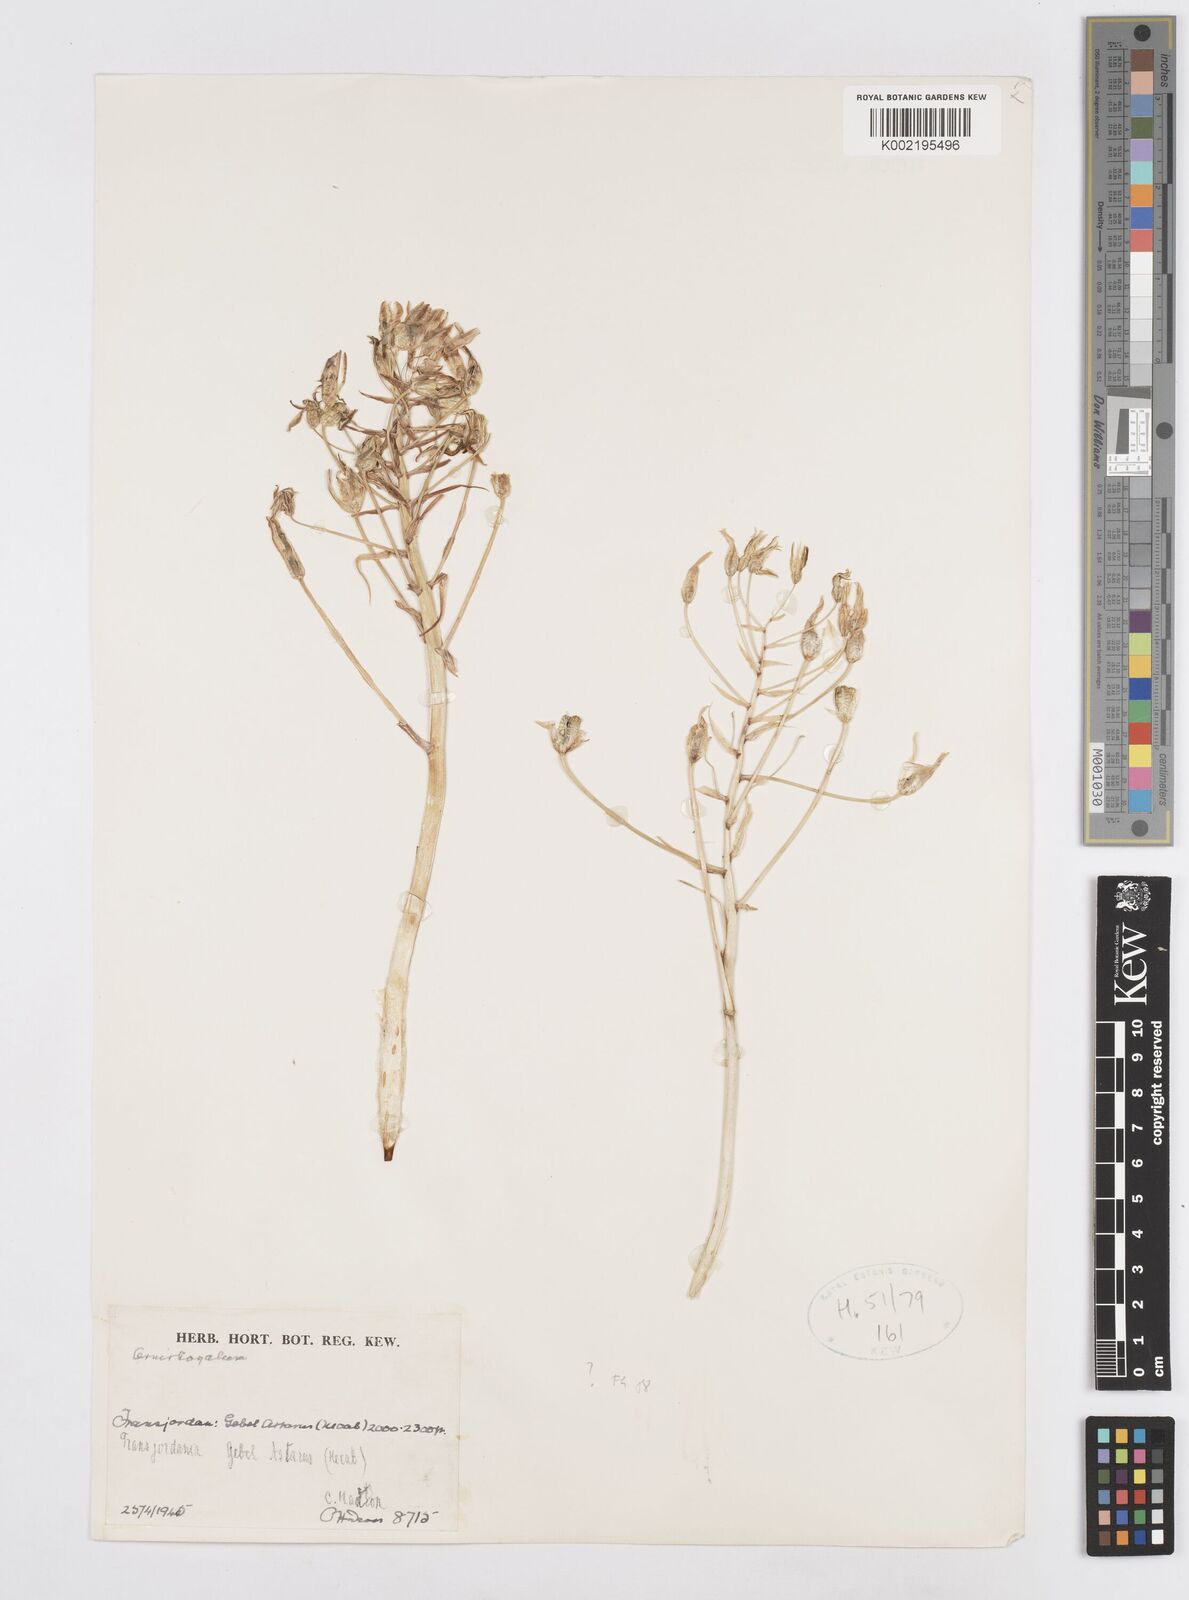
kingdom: Plantae
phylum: Tracheophyta
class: Liliopsida
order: Asparagales
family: Asparagaceae
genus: Ornithogalum
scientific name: Ornithogalum
